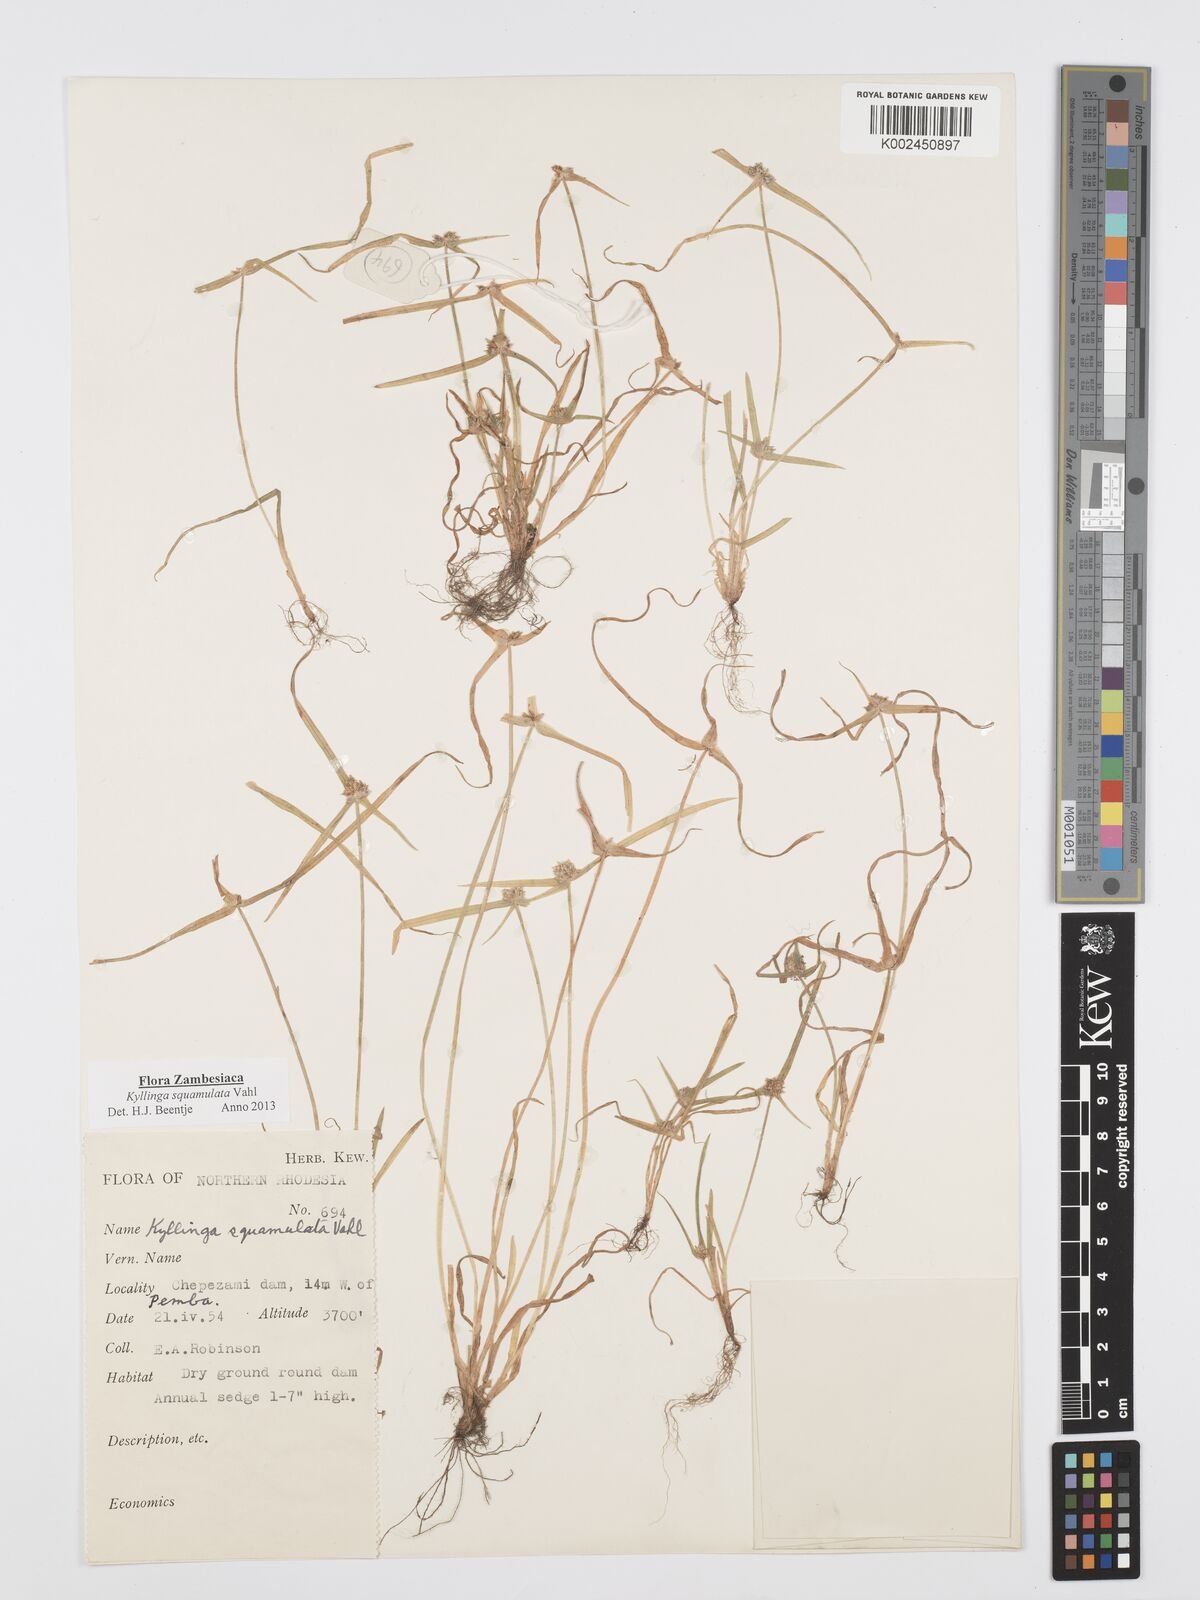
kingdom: Plantae
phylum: Tracheophyta
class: Liliopsida
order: Poales
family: Cyperaceae
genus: Cyperus
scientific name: Cyperus distans
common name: Slender cyperus
